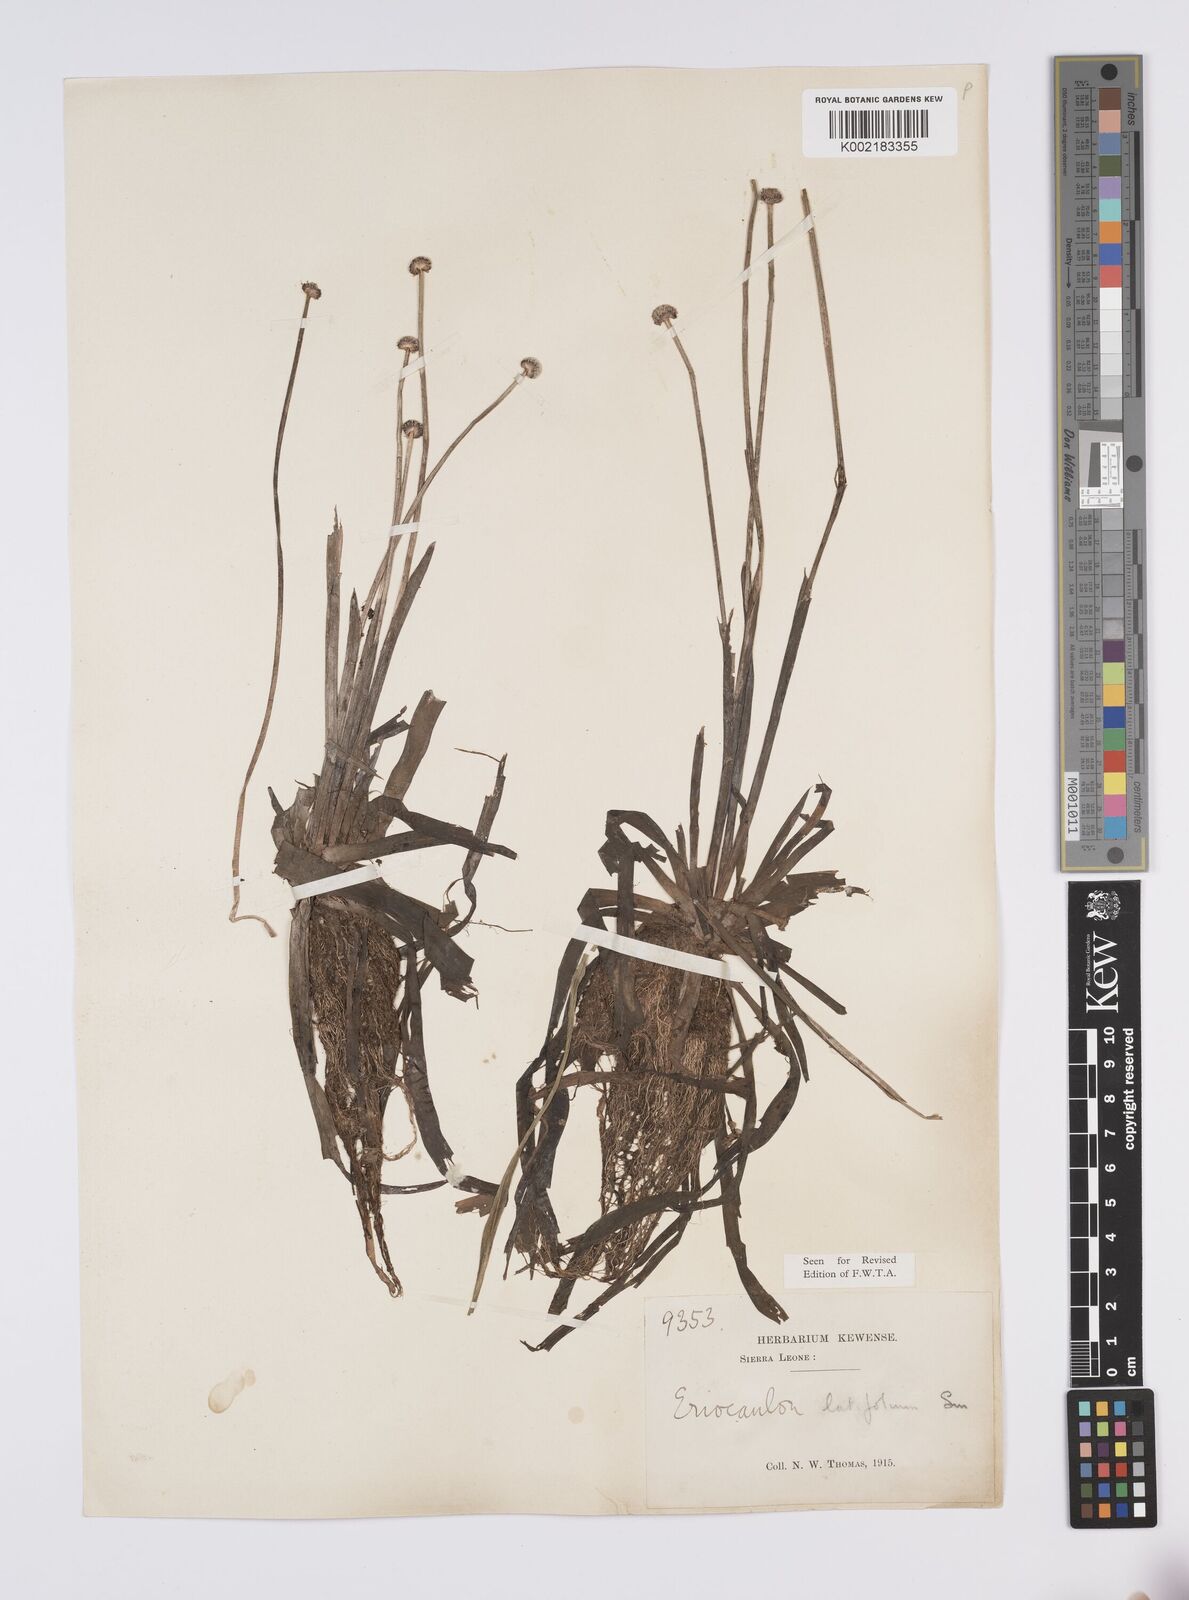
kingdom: Plantae
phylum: Tracheophyta
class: Liliopsida
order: Poales
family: Eriocaulaceae
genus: Eriocaulon
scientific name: Eriocaulon latifolium
